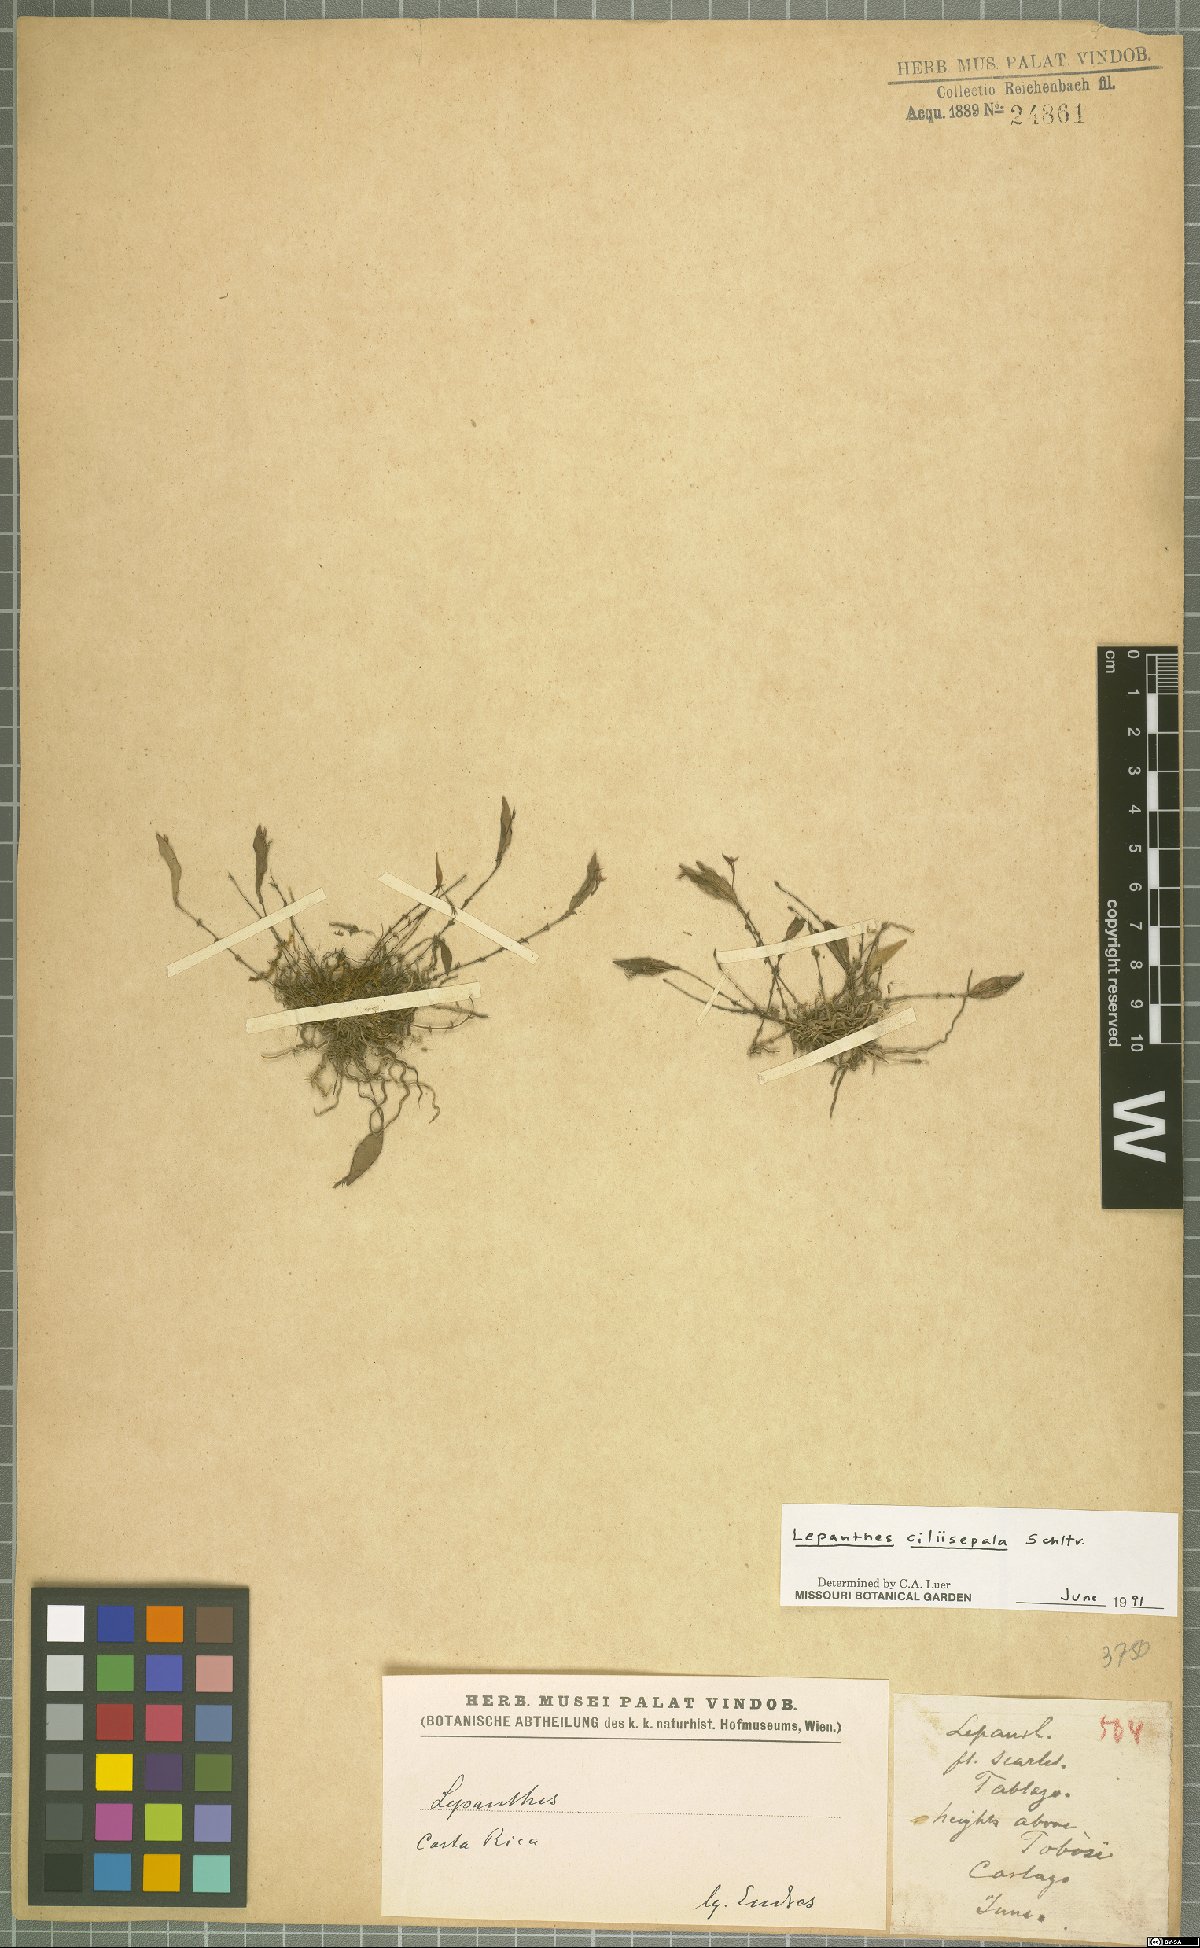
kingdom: Plantae
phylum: Tracheophyta
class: Liliopsida
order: Asparagales
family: Orchidaceae
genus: Lepanthes
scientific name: Lepanthes ciliisepala
